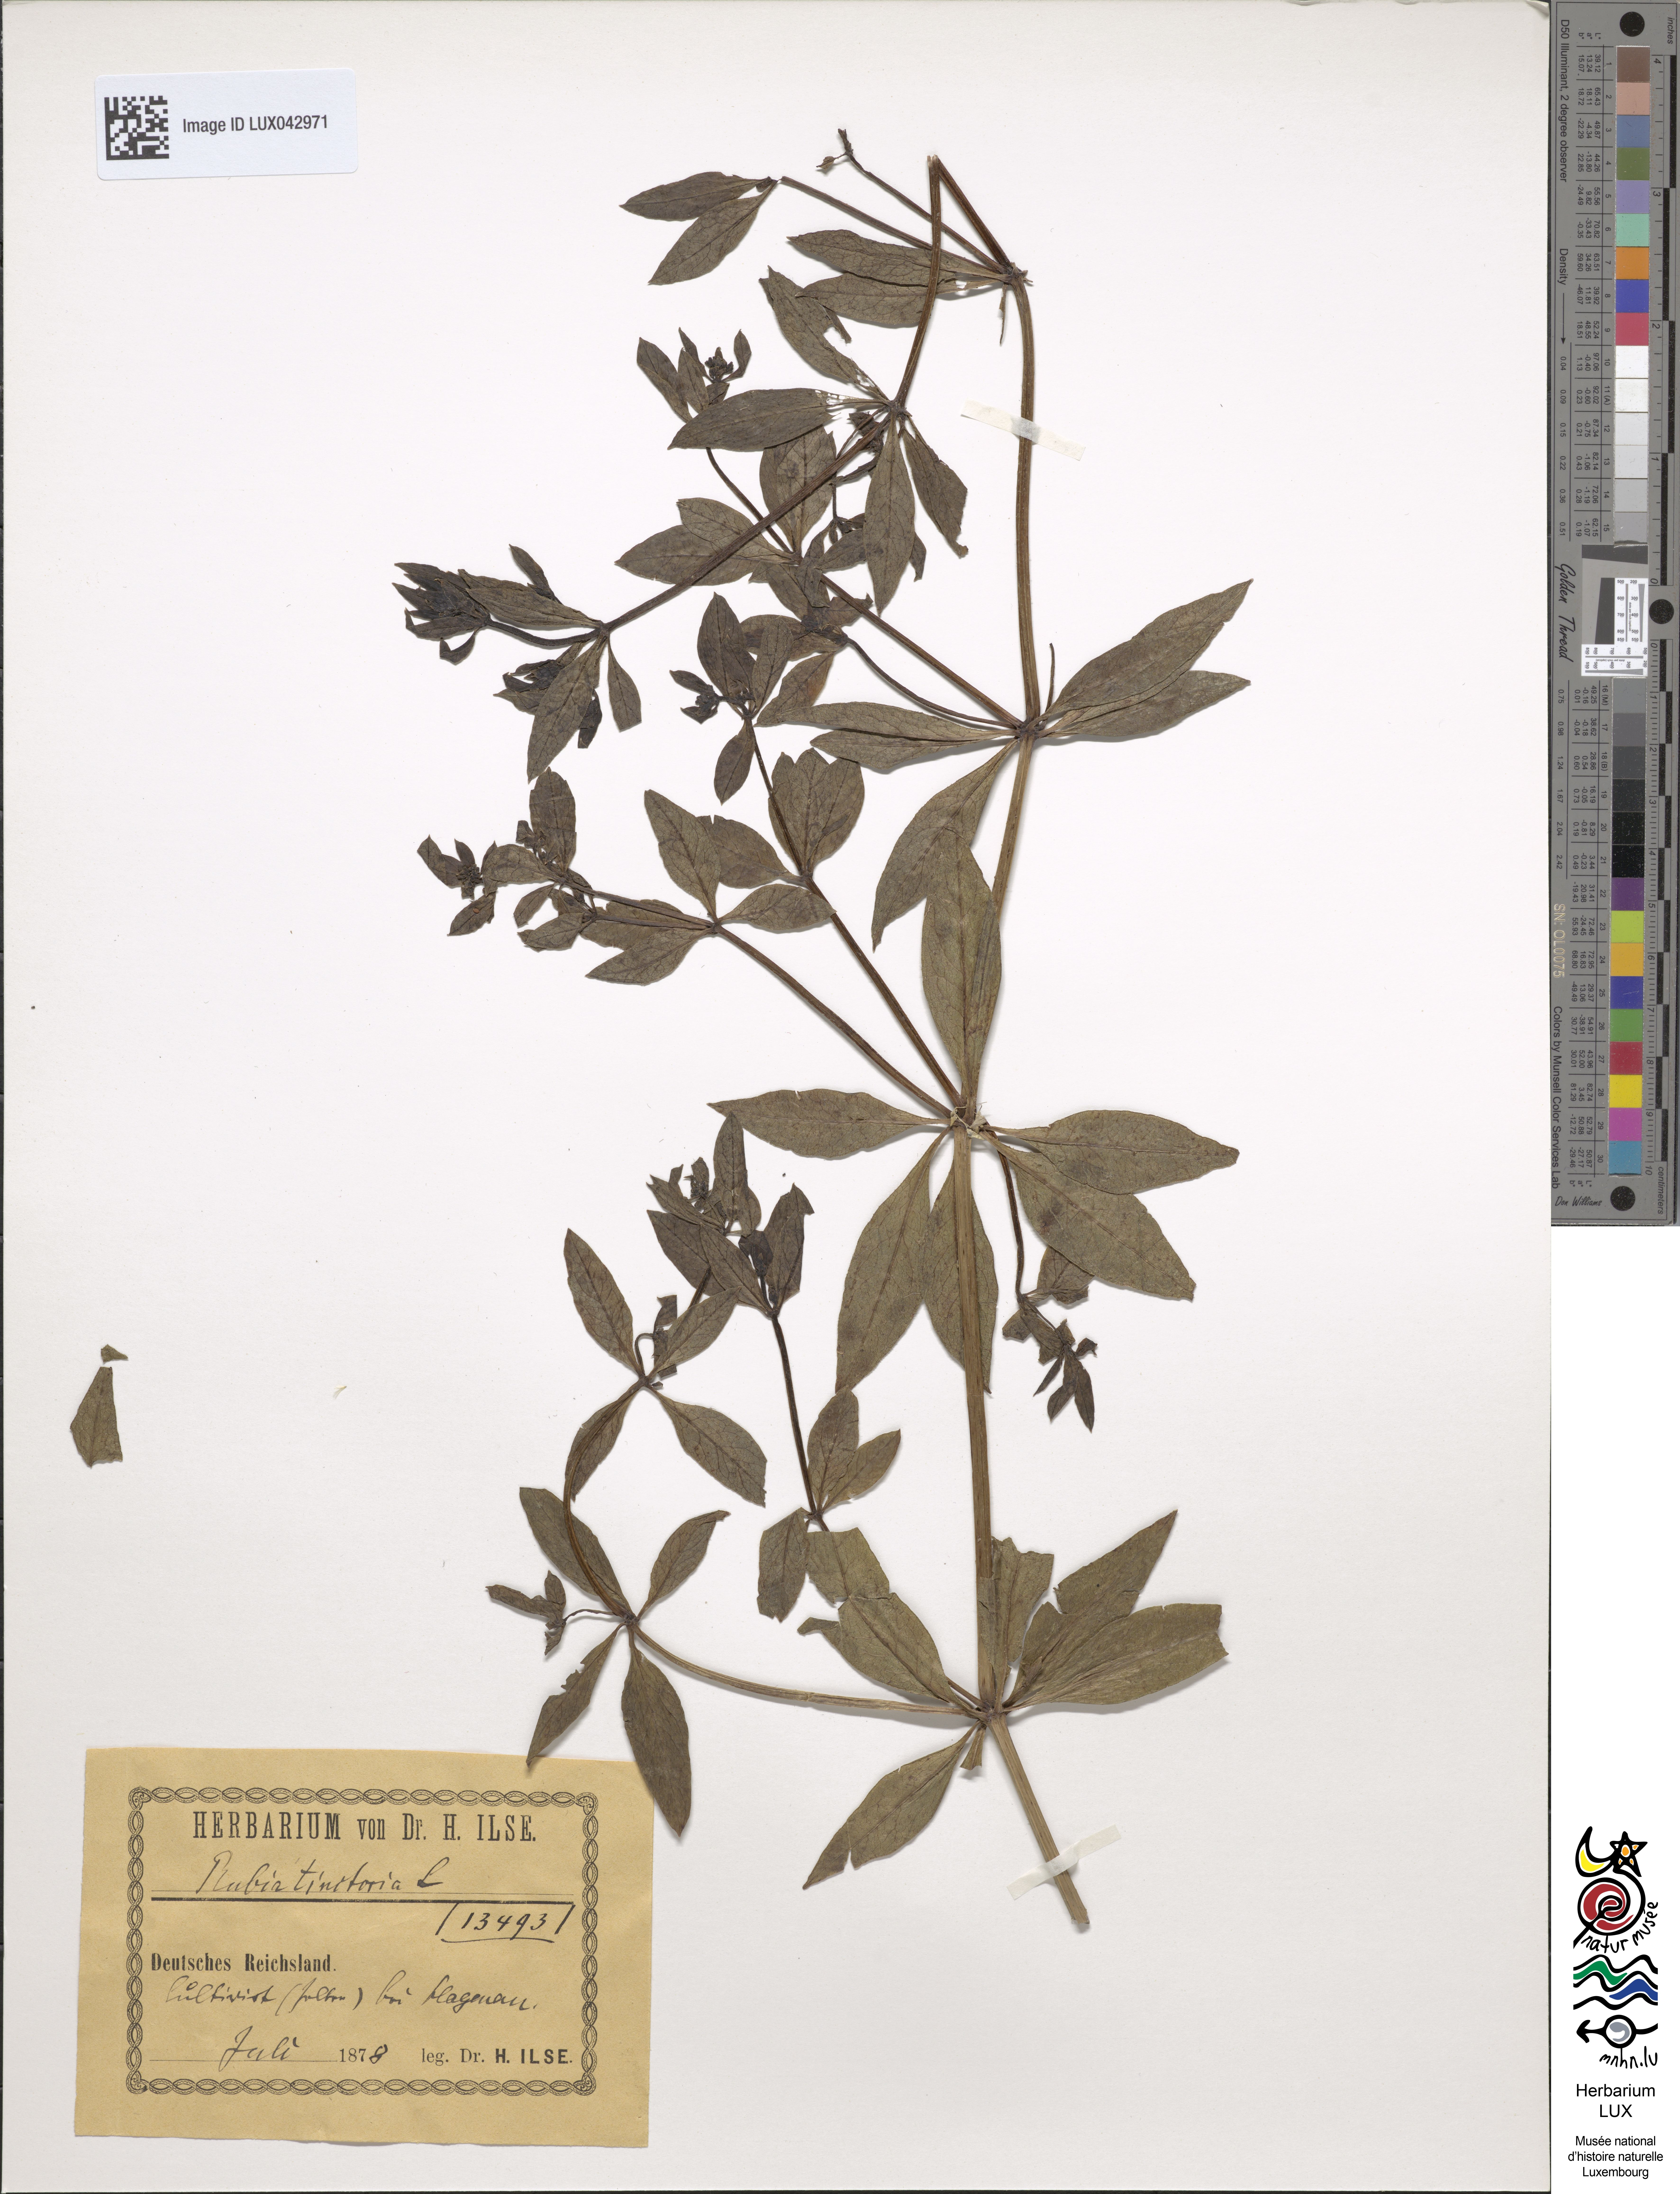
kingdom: Plantae
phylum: Tracheophyta
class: Magnoliopsida
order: Gentianales
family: Rubiaceae
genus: Rubia
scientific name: Rubia tinctorum
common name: Dyer's madder
